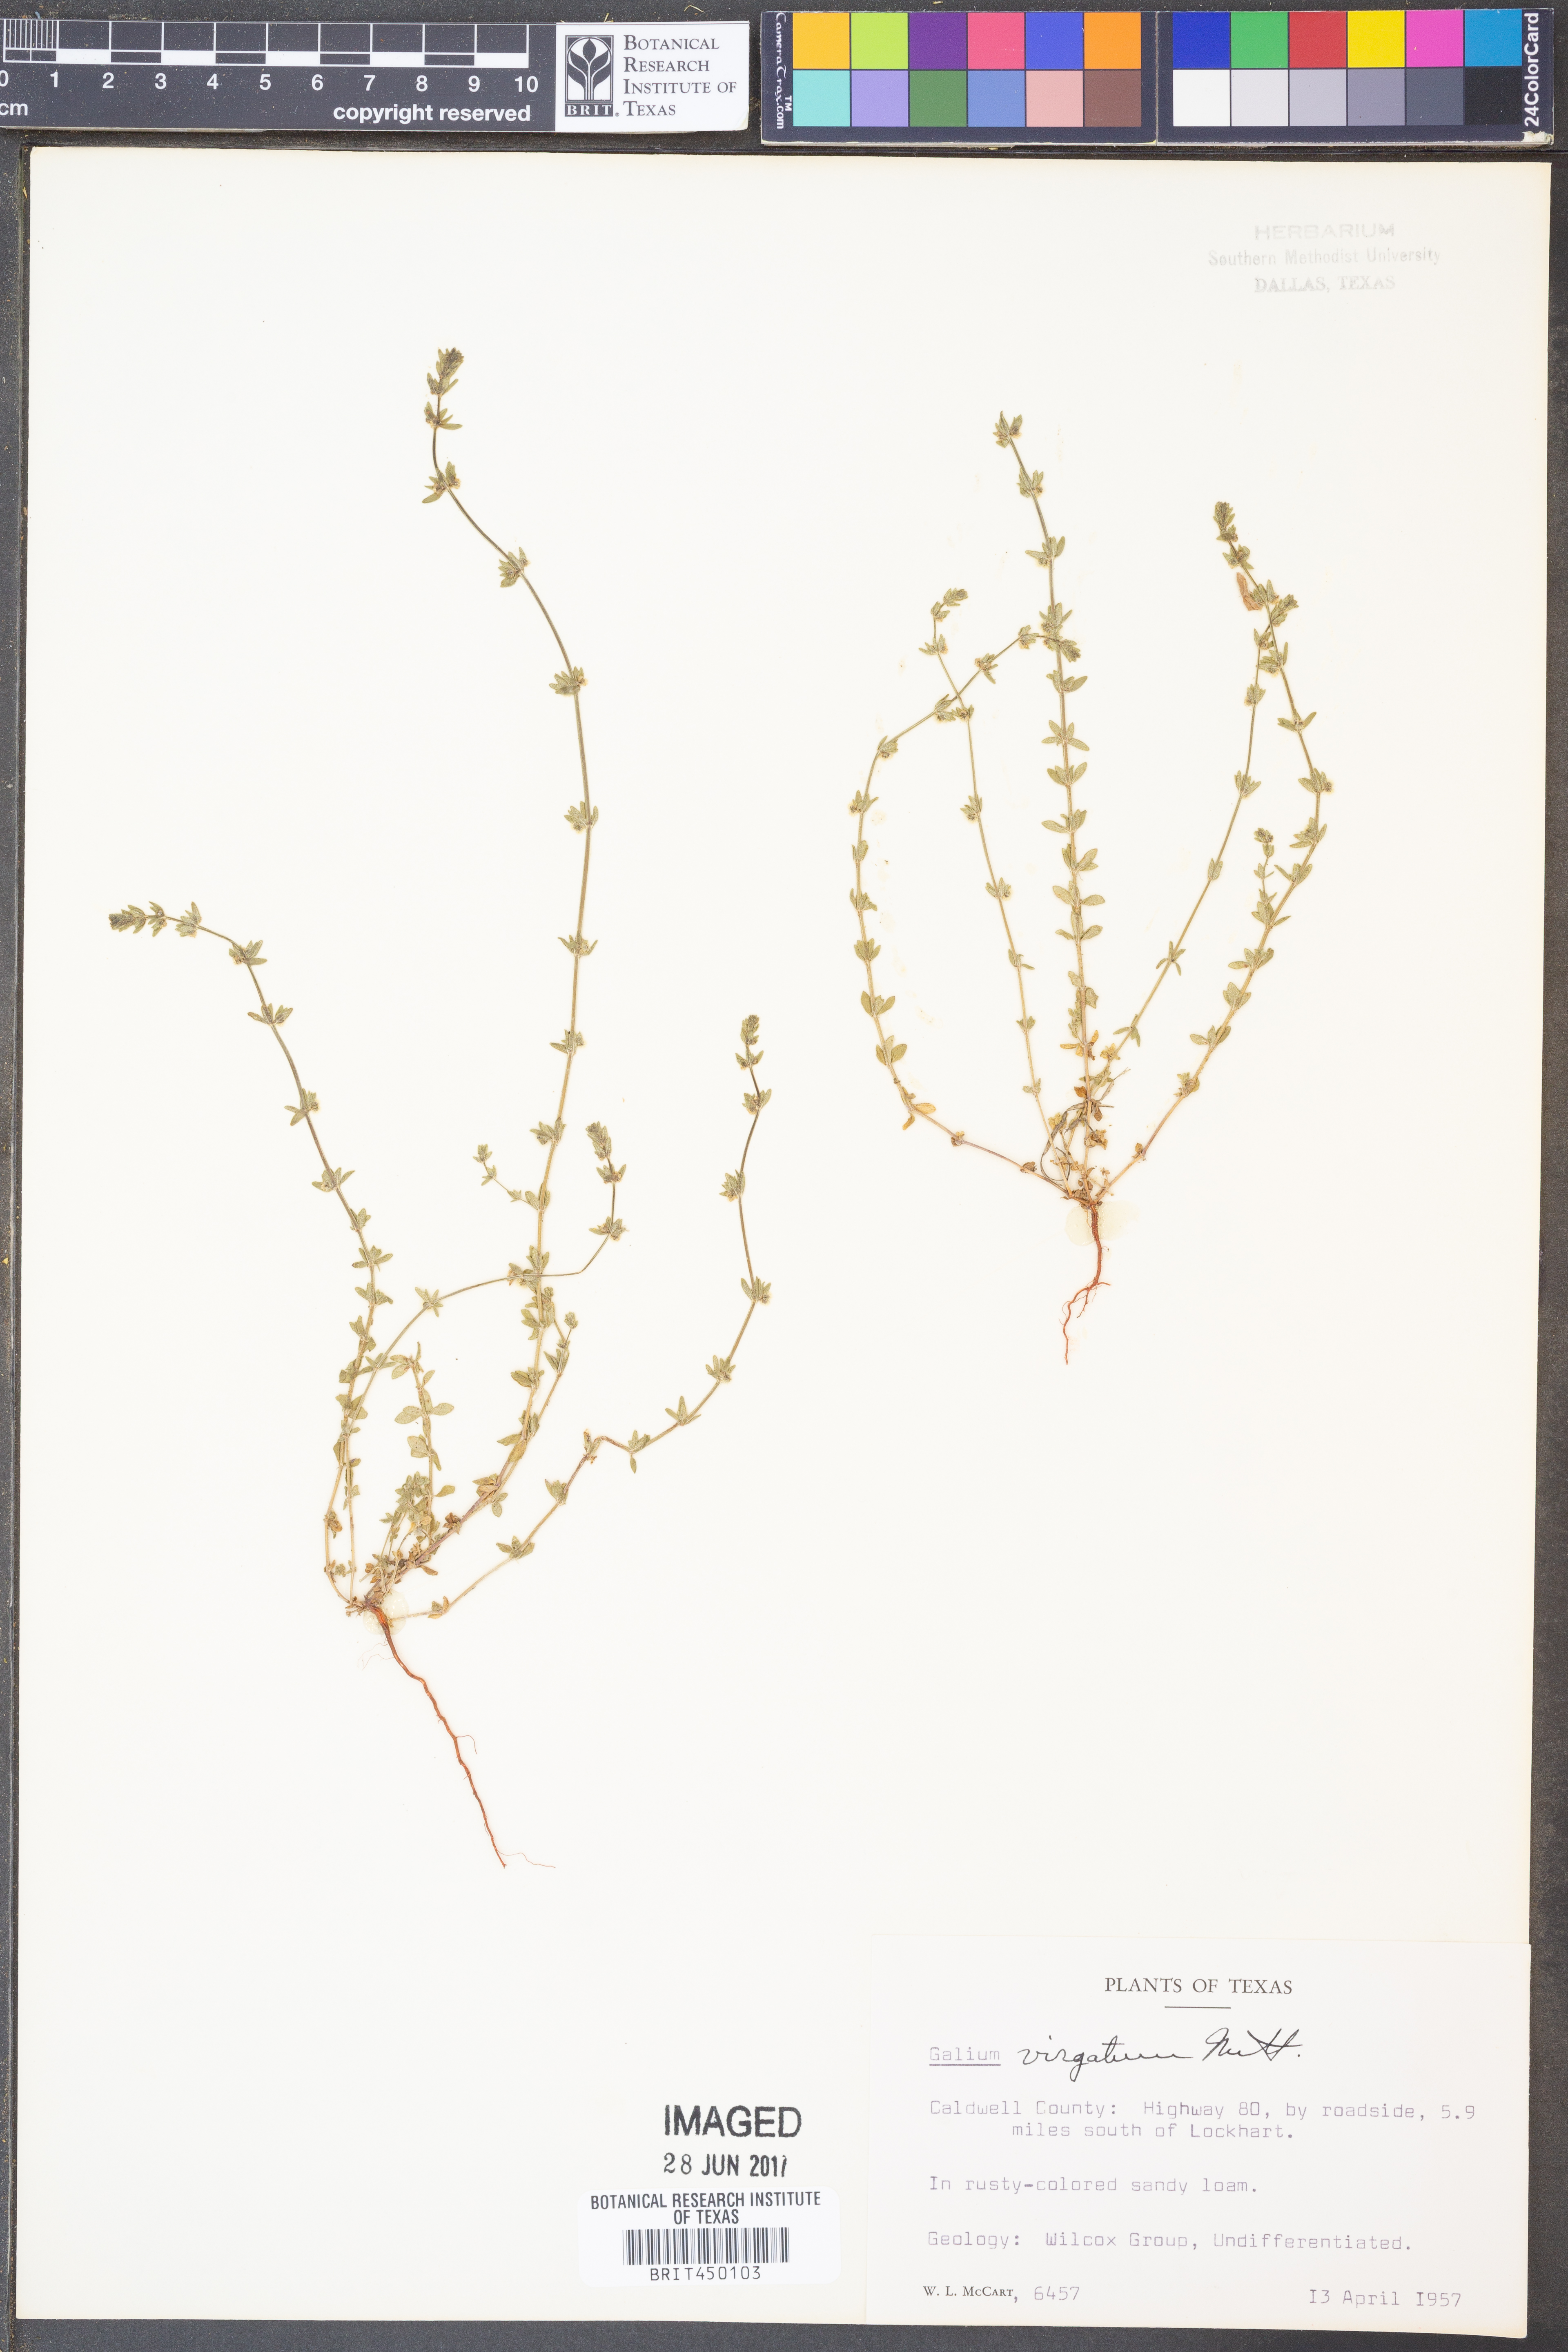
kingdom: Plantae
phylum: Tracheophyta
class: Magnoliopsida
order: Gentianales
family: Rubiaceae
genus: Galium
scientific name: Galium virgatum
